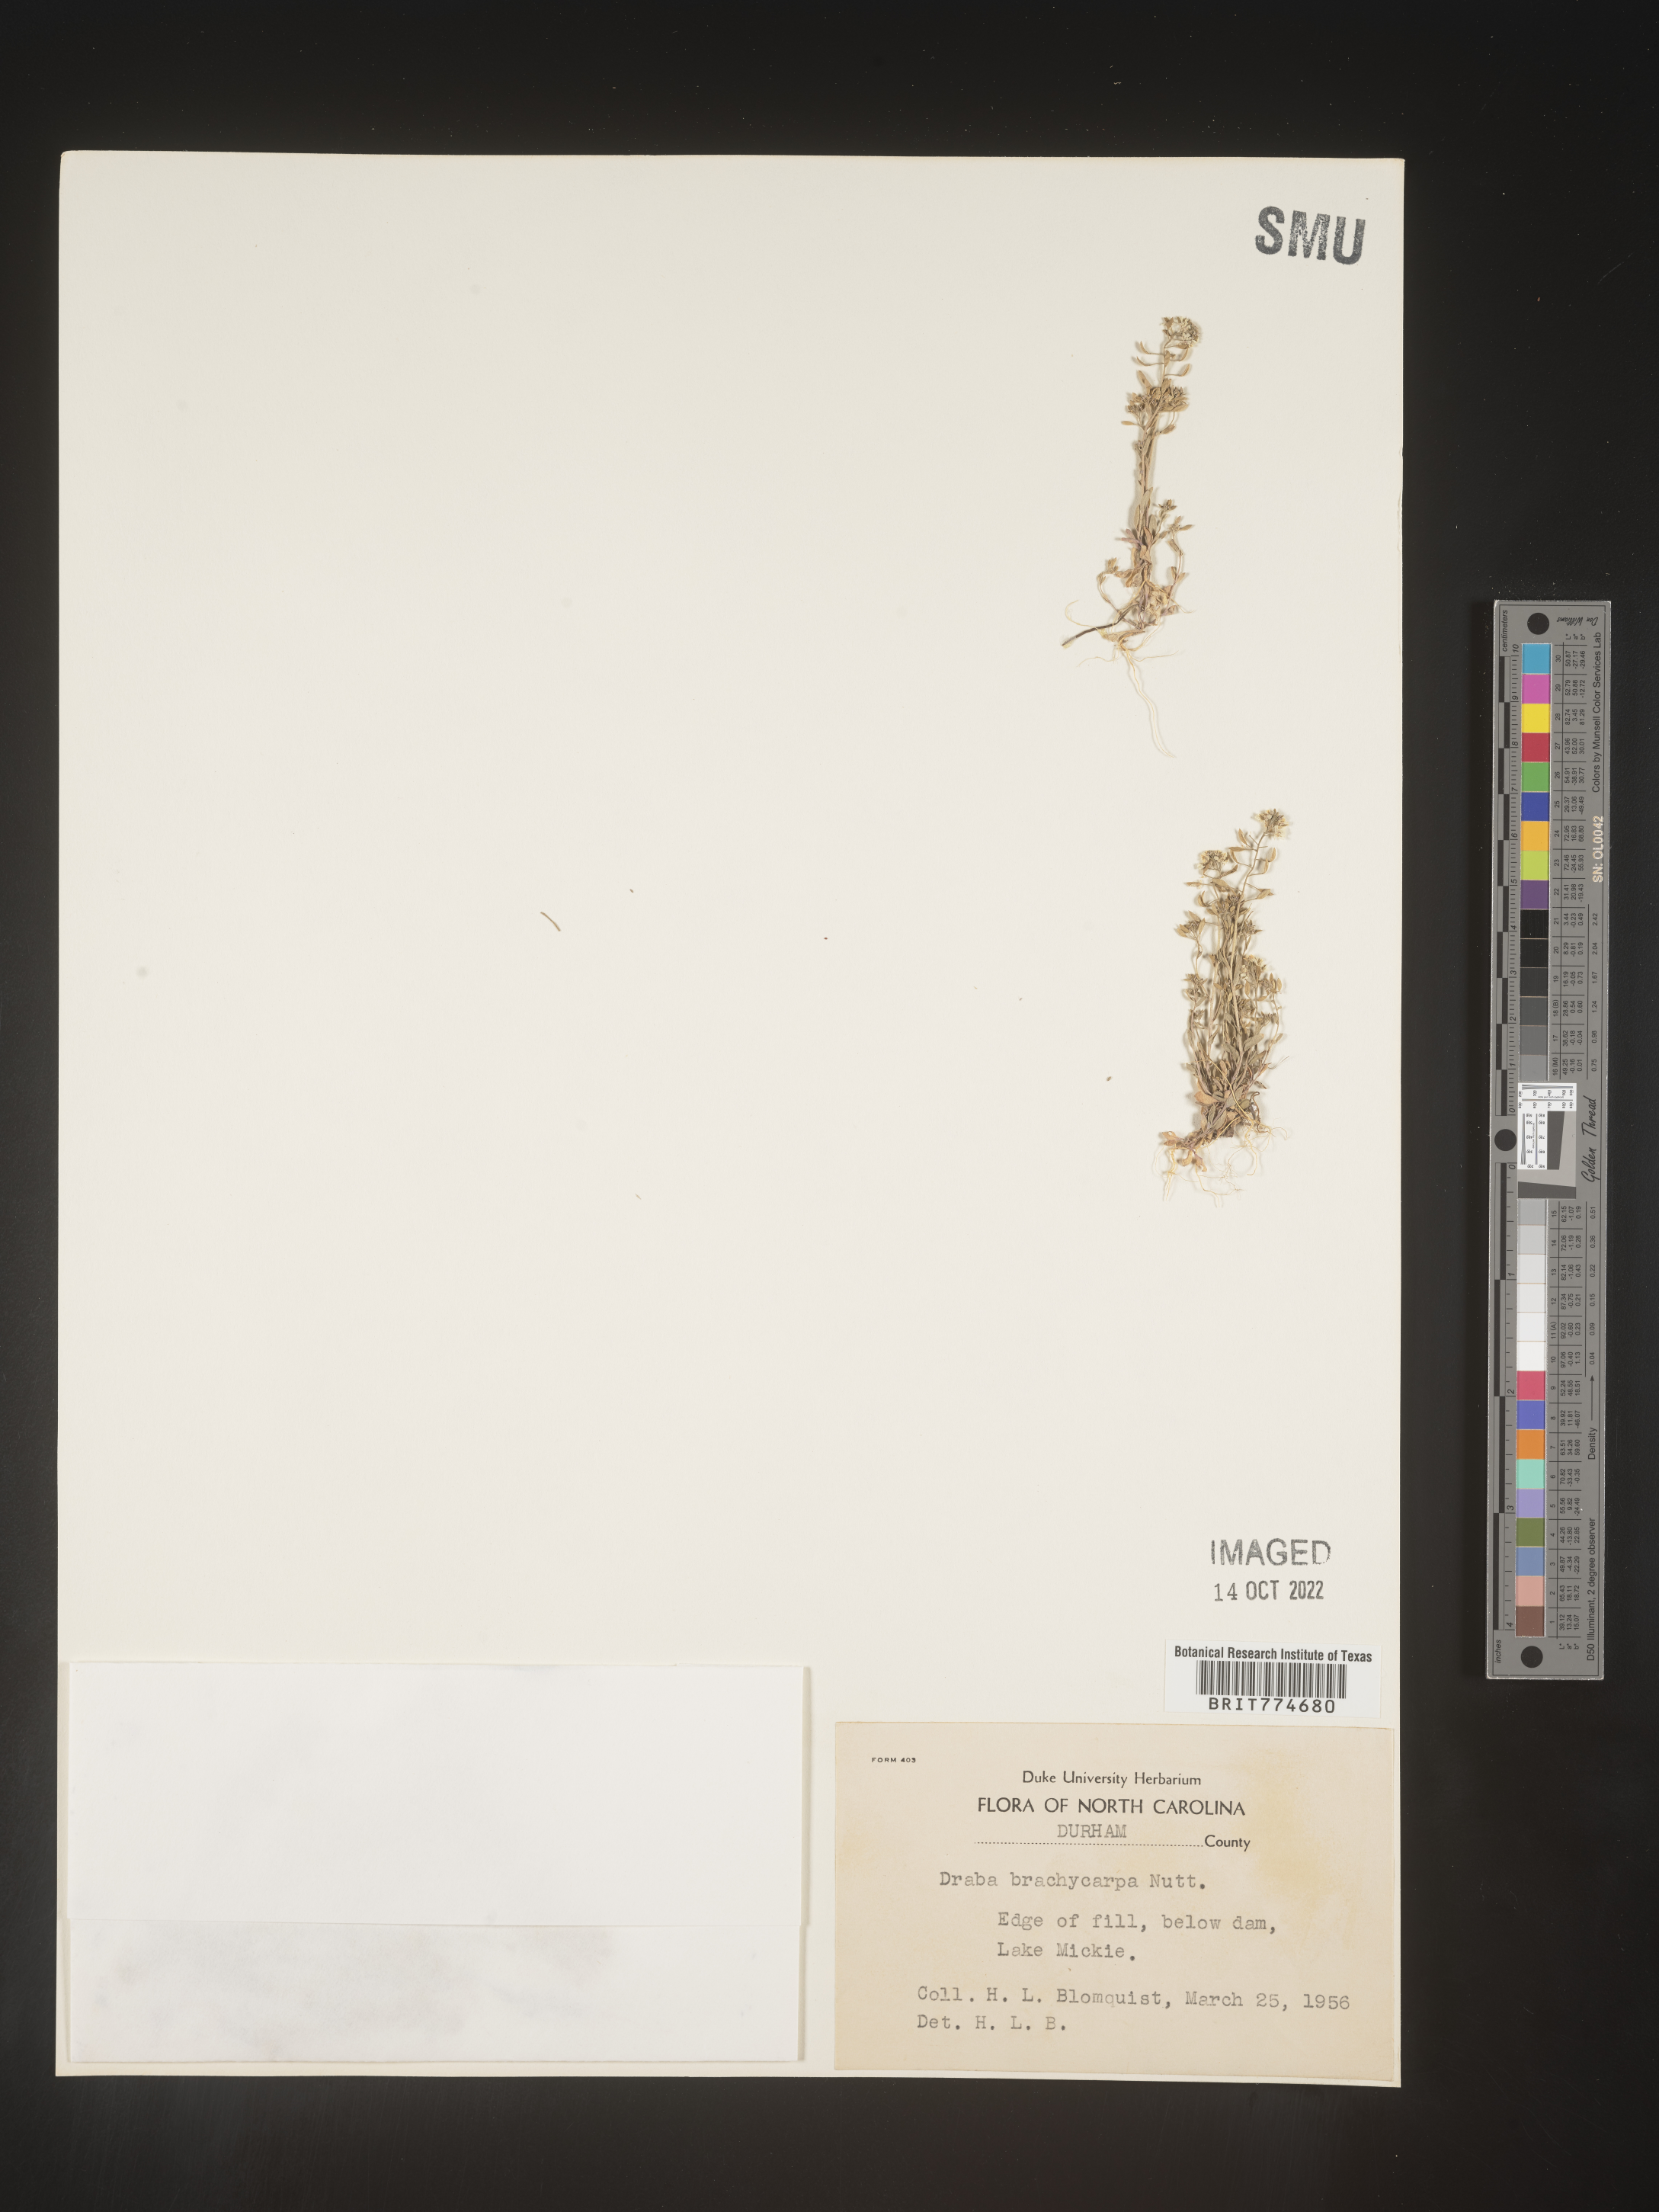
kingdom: Plantae
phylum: Tracheophyta
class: Magnoliopsida
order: Brassicales
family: Brassicaceae
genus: Abdra
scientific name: Abdra brachycarpa
